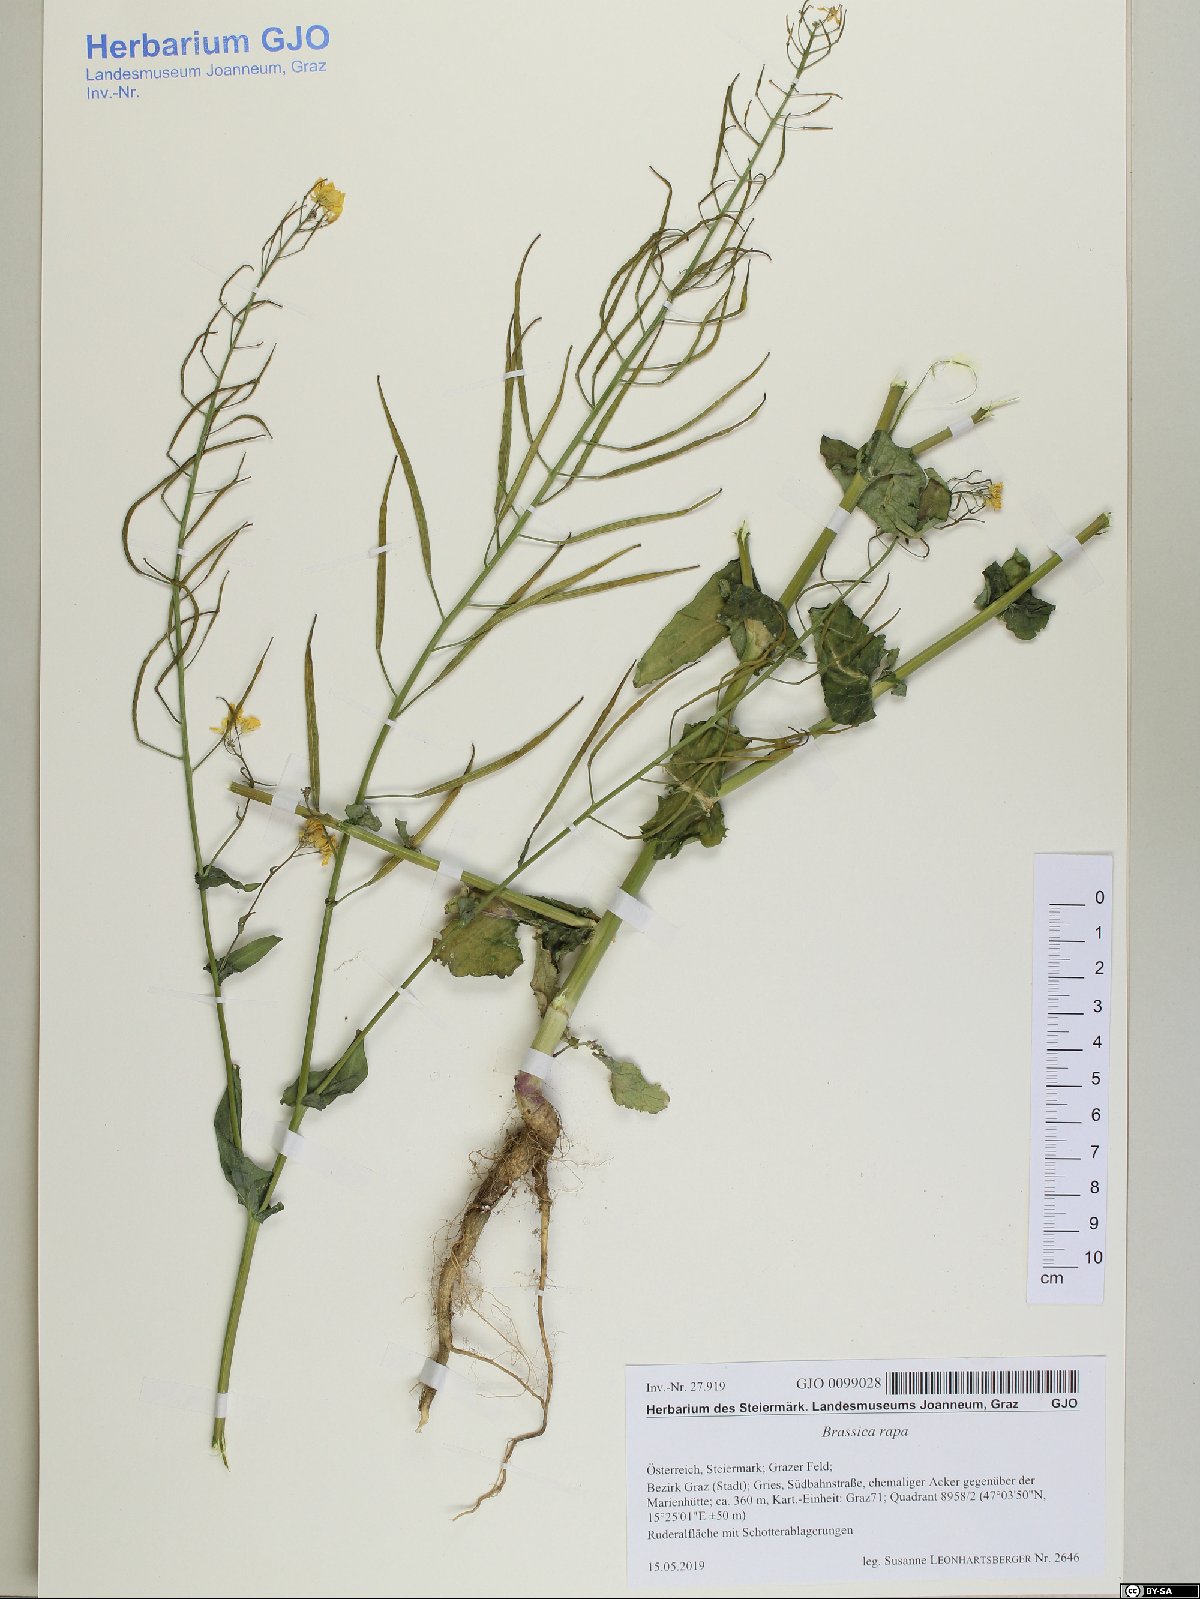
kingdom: Plantae
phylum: Tracheophyta
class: Magnoliopsida
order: Brassicales
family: Brassicaceae
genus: Brassica
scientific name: Brassica rapa
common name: Field mustard
